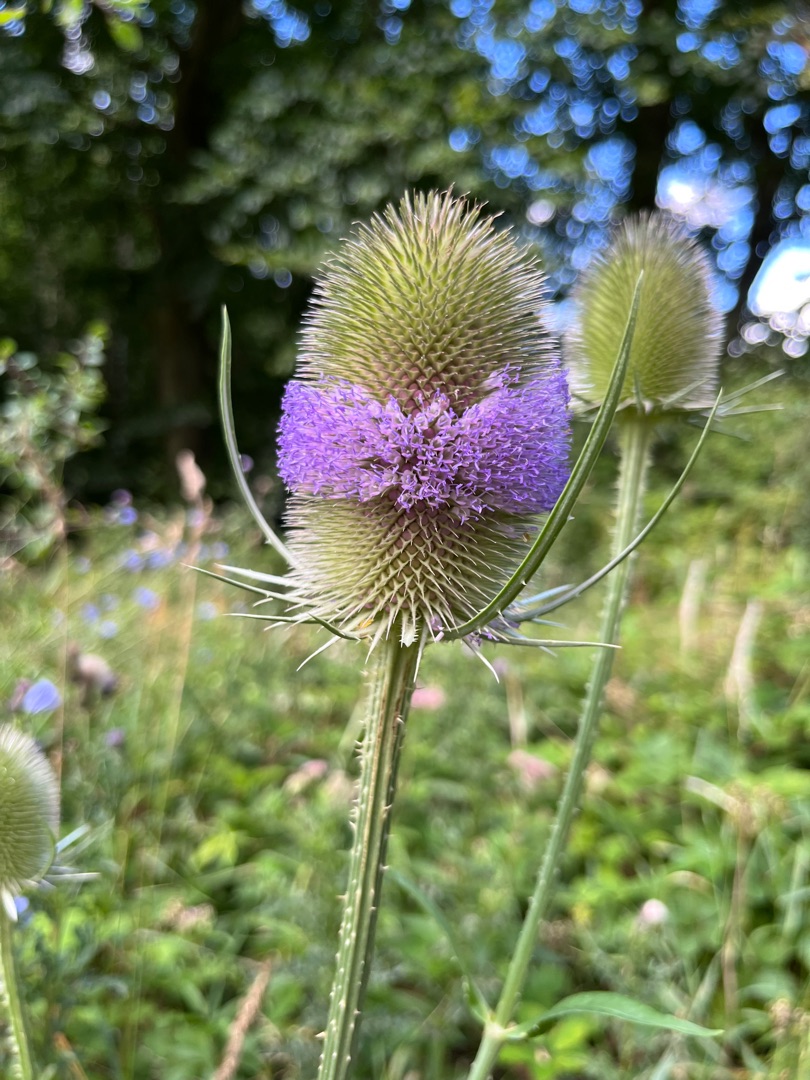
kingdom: Plantae
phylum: Tracheophyta
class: Magnoliopsida
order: Dipsacales
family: Caprifoliaceae
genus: Dipsacus
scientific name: Dipsacus fullonum
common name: Gærde-kartebolle
